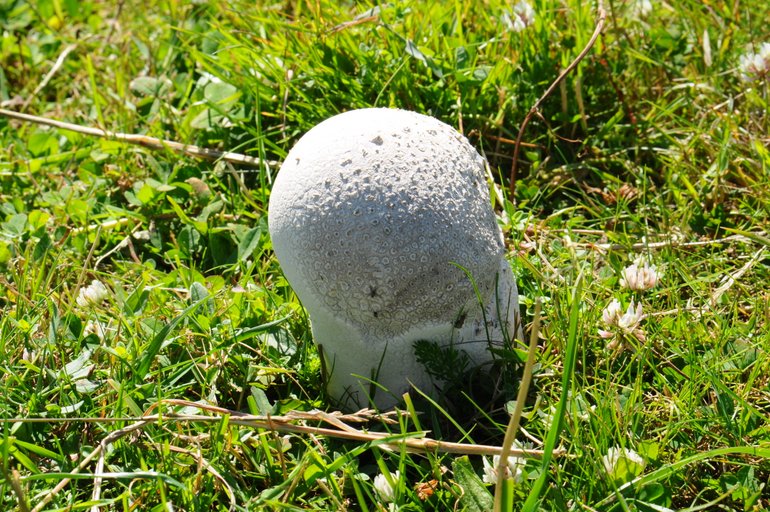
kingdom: Fungi
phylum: Basidiomycota
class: Agaricomycetes
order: Agaricales
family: Lycoperdaceae
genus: Bovistella
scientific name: Bovistella utriformis
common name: skællet støvbold
